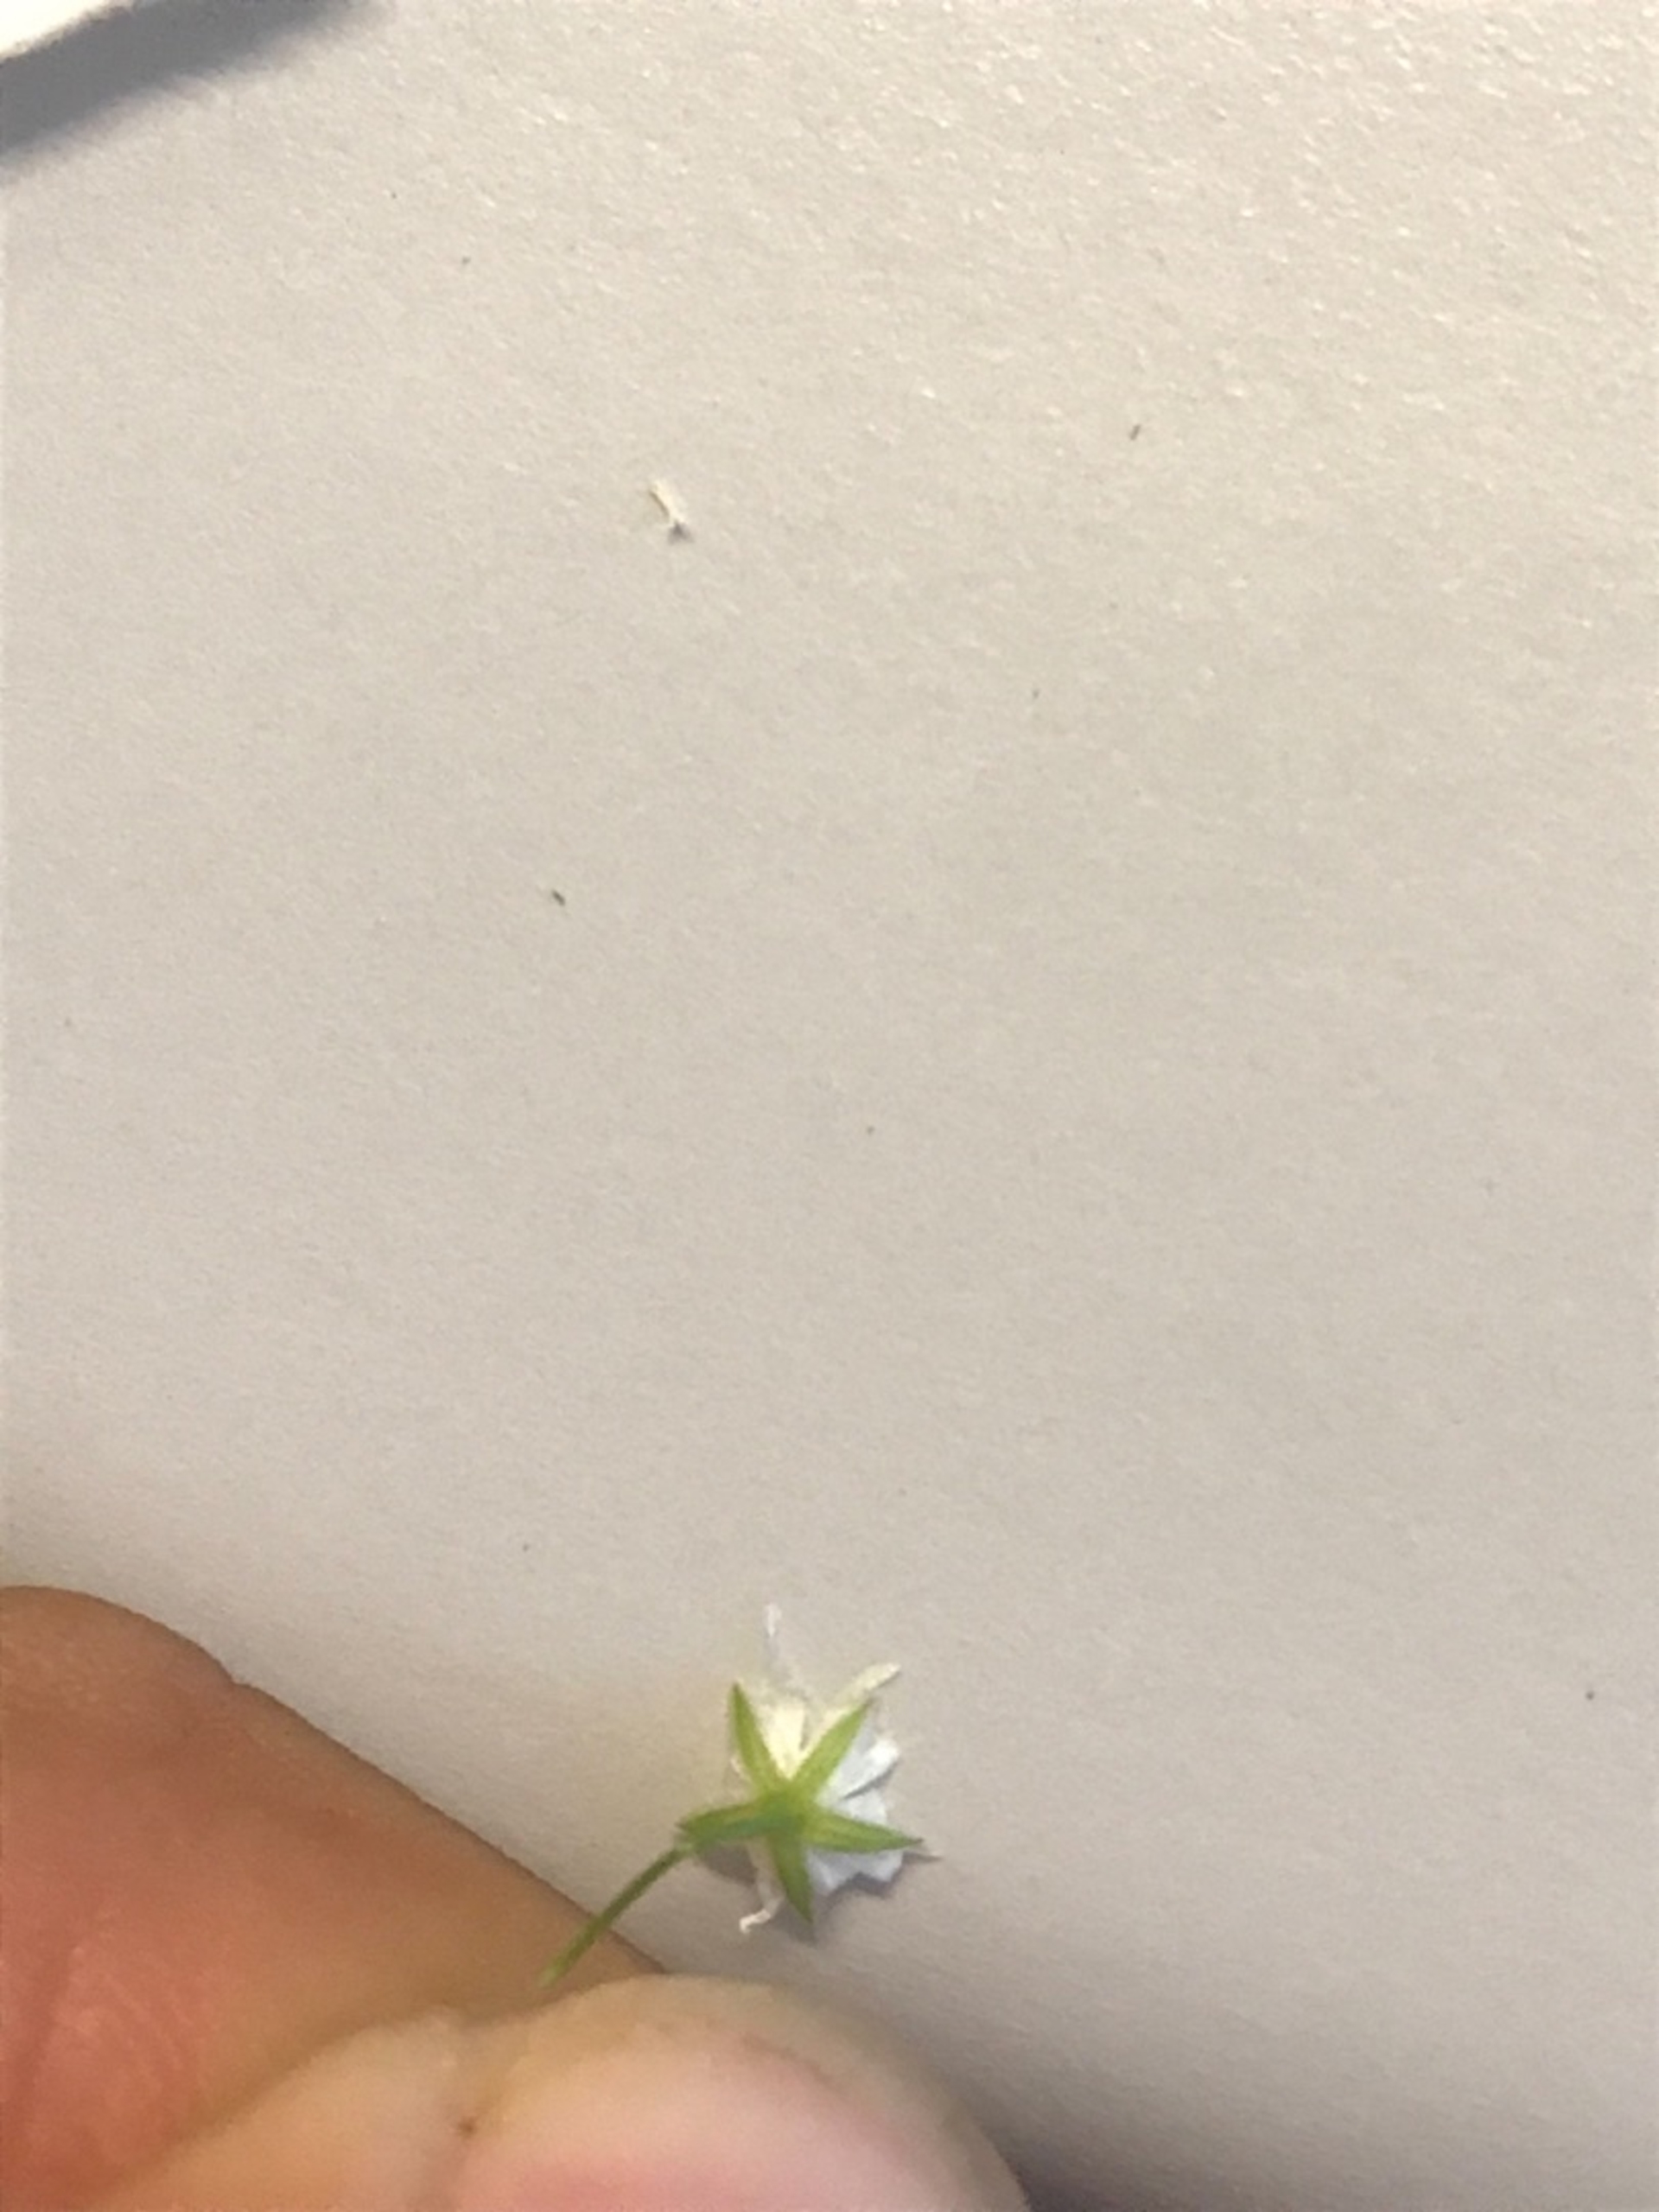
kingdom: Plantae
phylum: Tracheophyta
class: Magnoliopsida
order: Caryophyllales
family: Caryophyllaceae
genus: Stellaria
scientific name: Stellaria graminea
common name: Græsbladet fladstjerne
